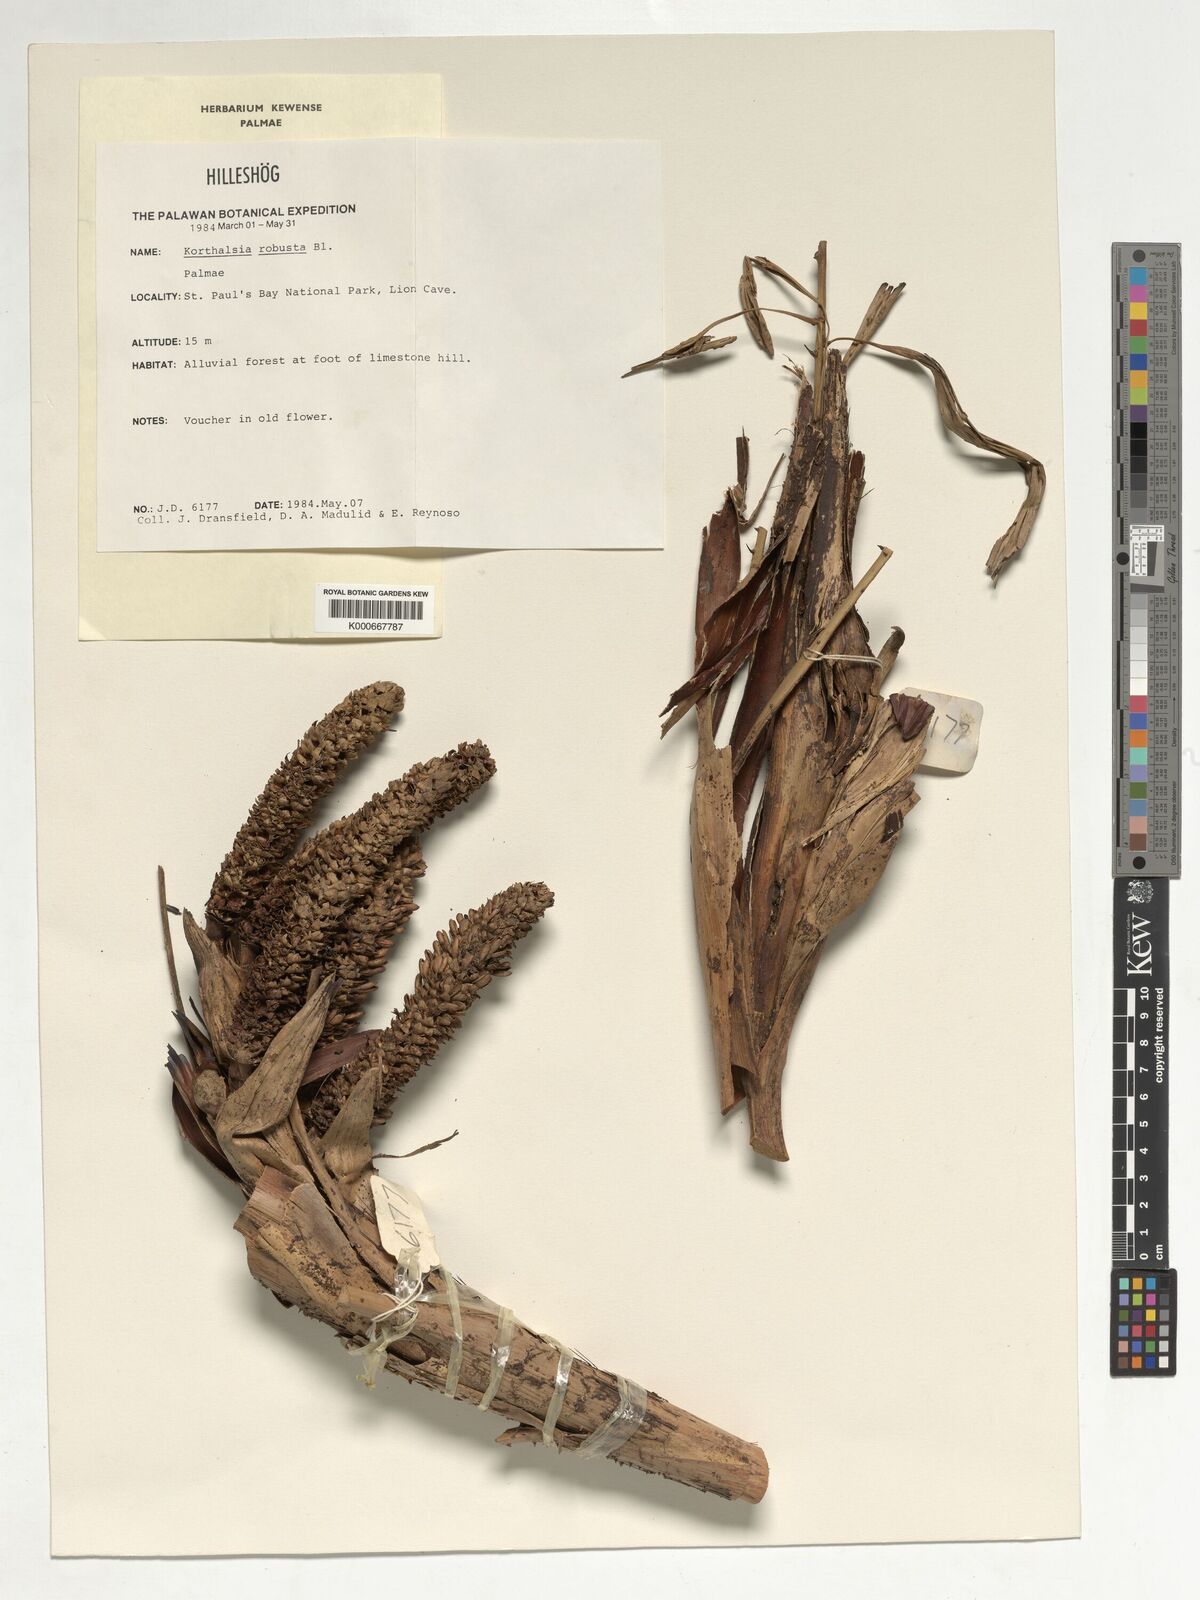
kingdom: Plantae
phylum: Tracheophyta
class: Liliopsida
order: Arecales
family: Arecaceae
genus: Korthalsia
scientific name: Korthalsia robusta
